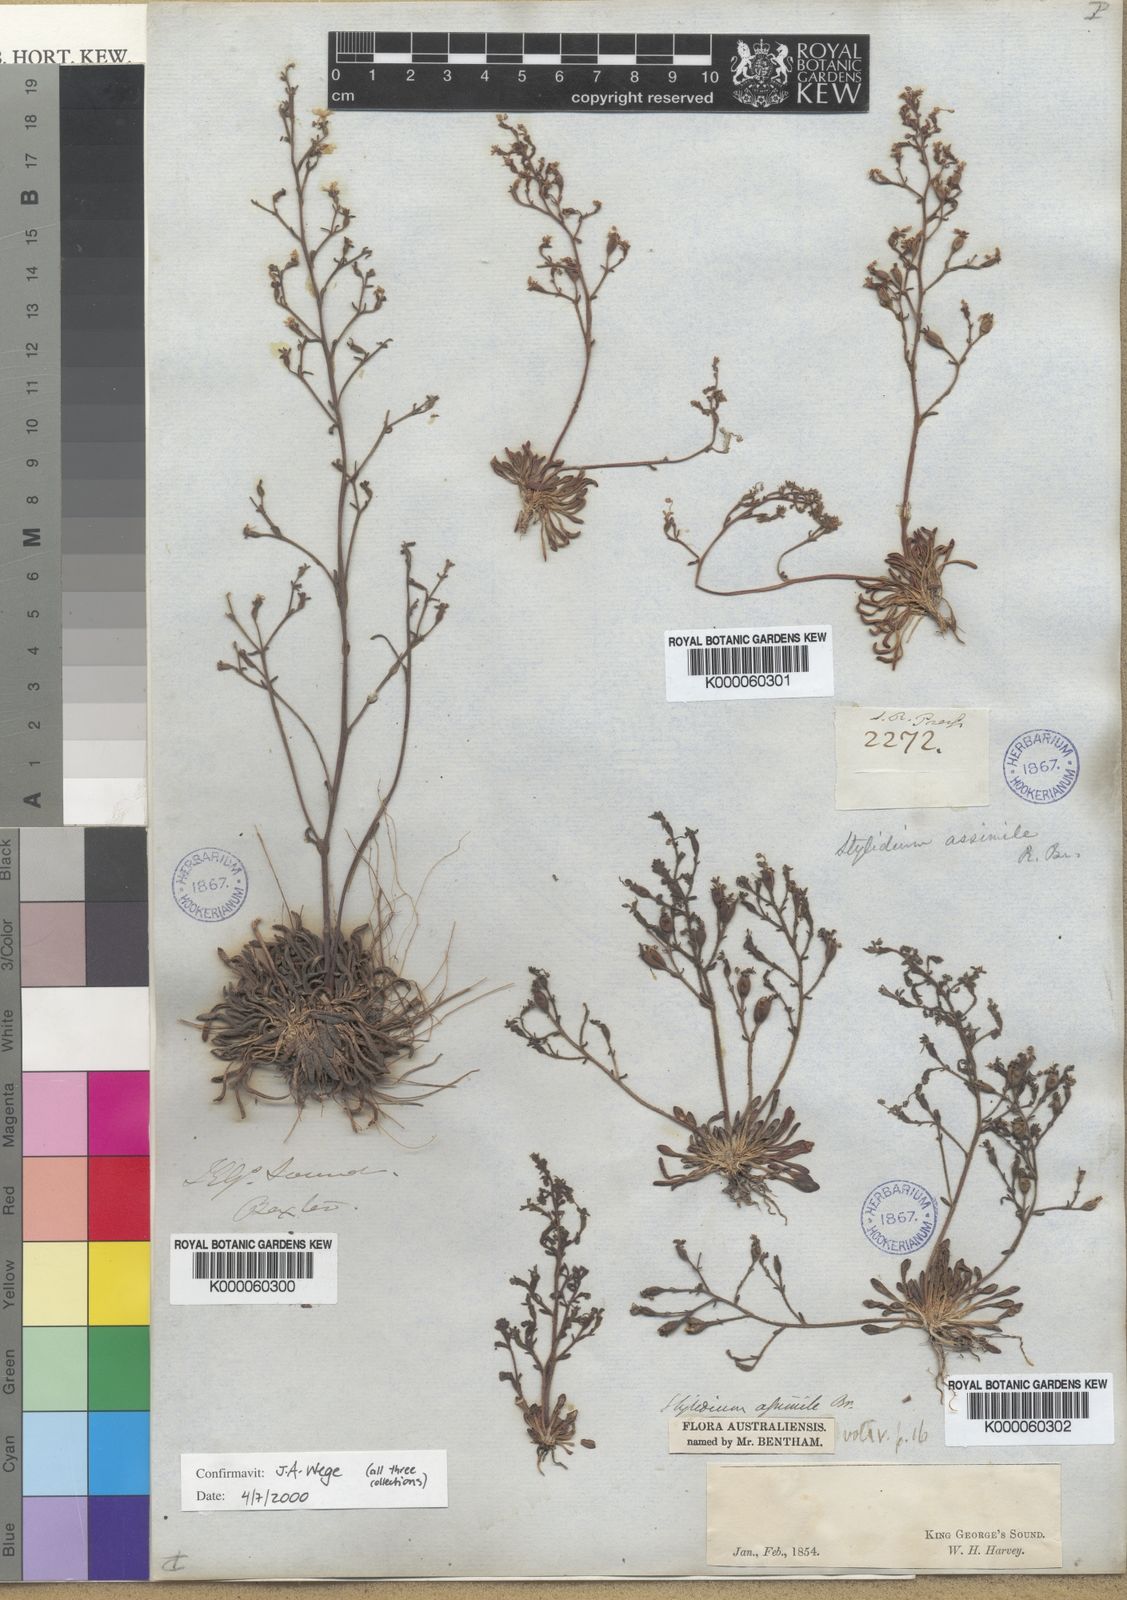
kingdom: Plantae
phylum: Tracheophyta
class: Magnoliopsida
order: Asterales
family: Stylidiaceae
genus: Stylidium
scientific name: Stylidium assimile
